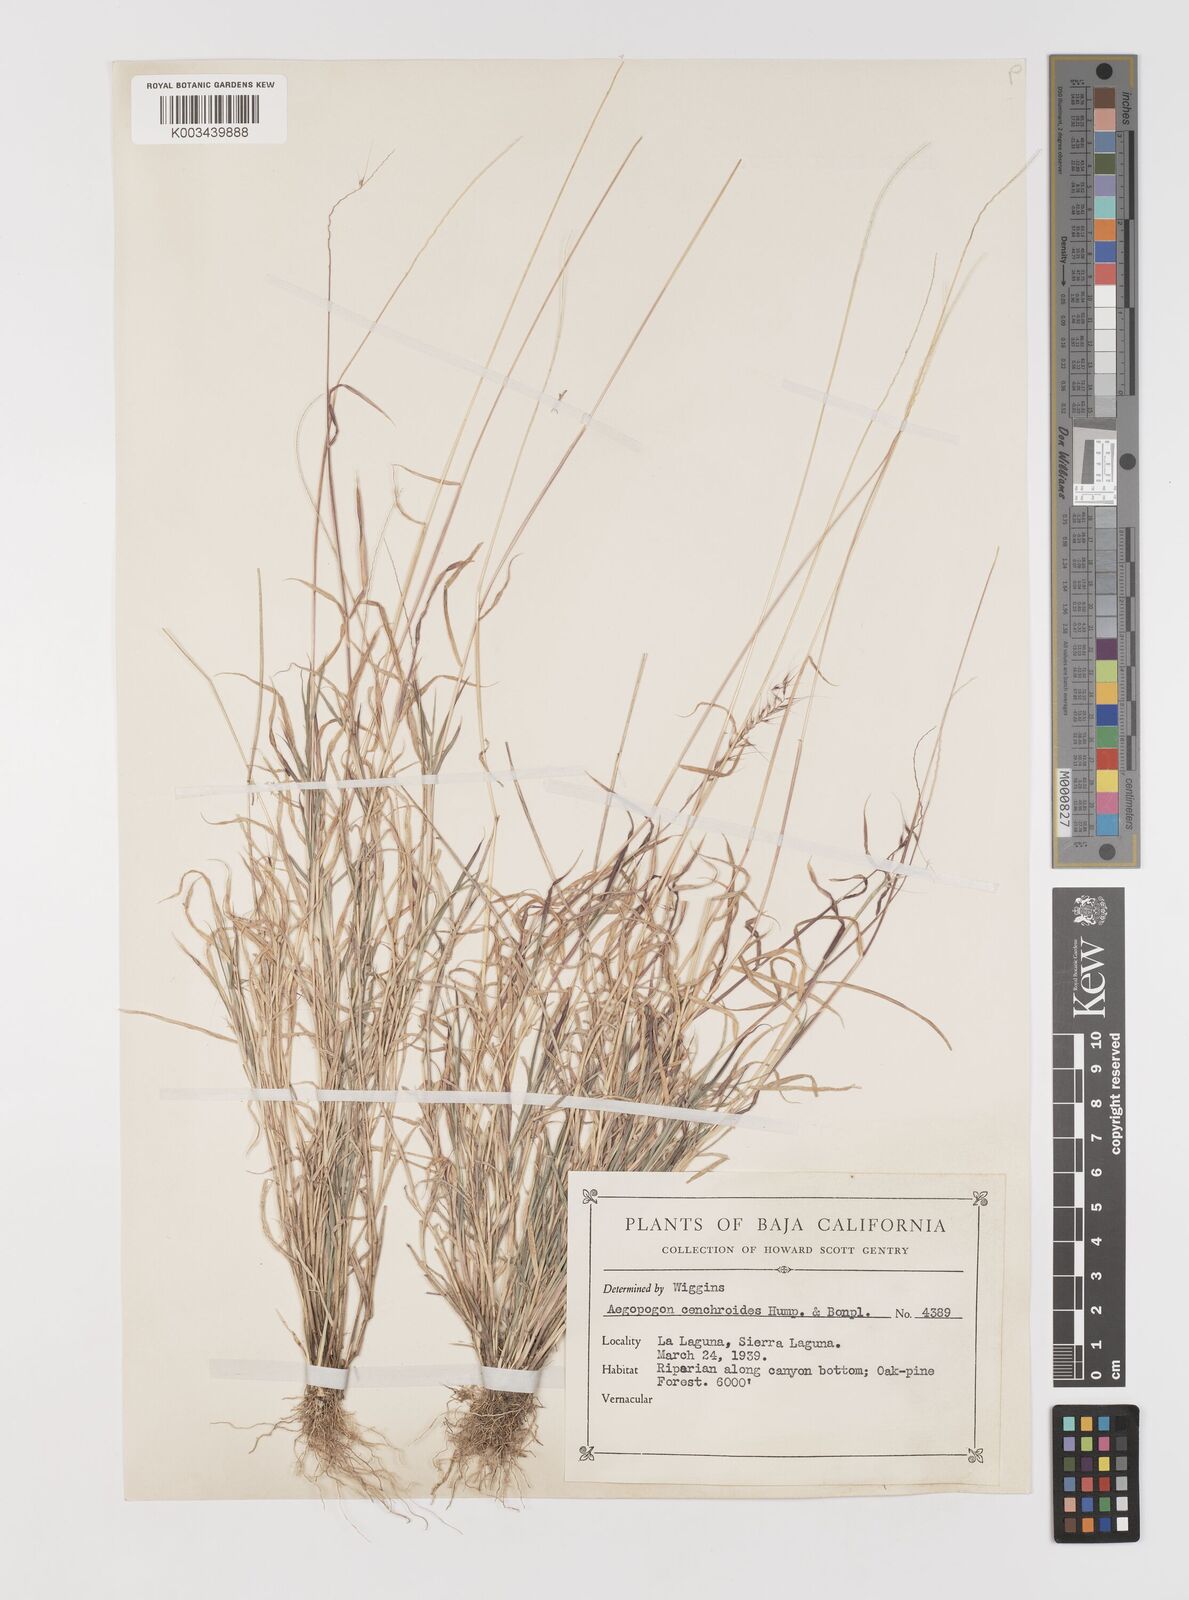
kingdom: Plantae
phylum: Tracheophyta
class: Liliopsida
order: Poales
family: Poaceae
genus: Muhlenbergia
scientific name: Muhlenbergia cenchroides
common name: Relaxgrass
